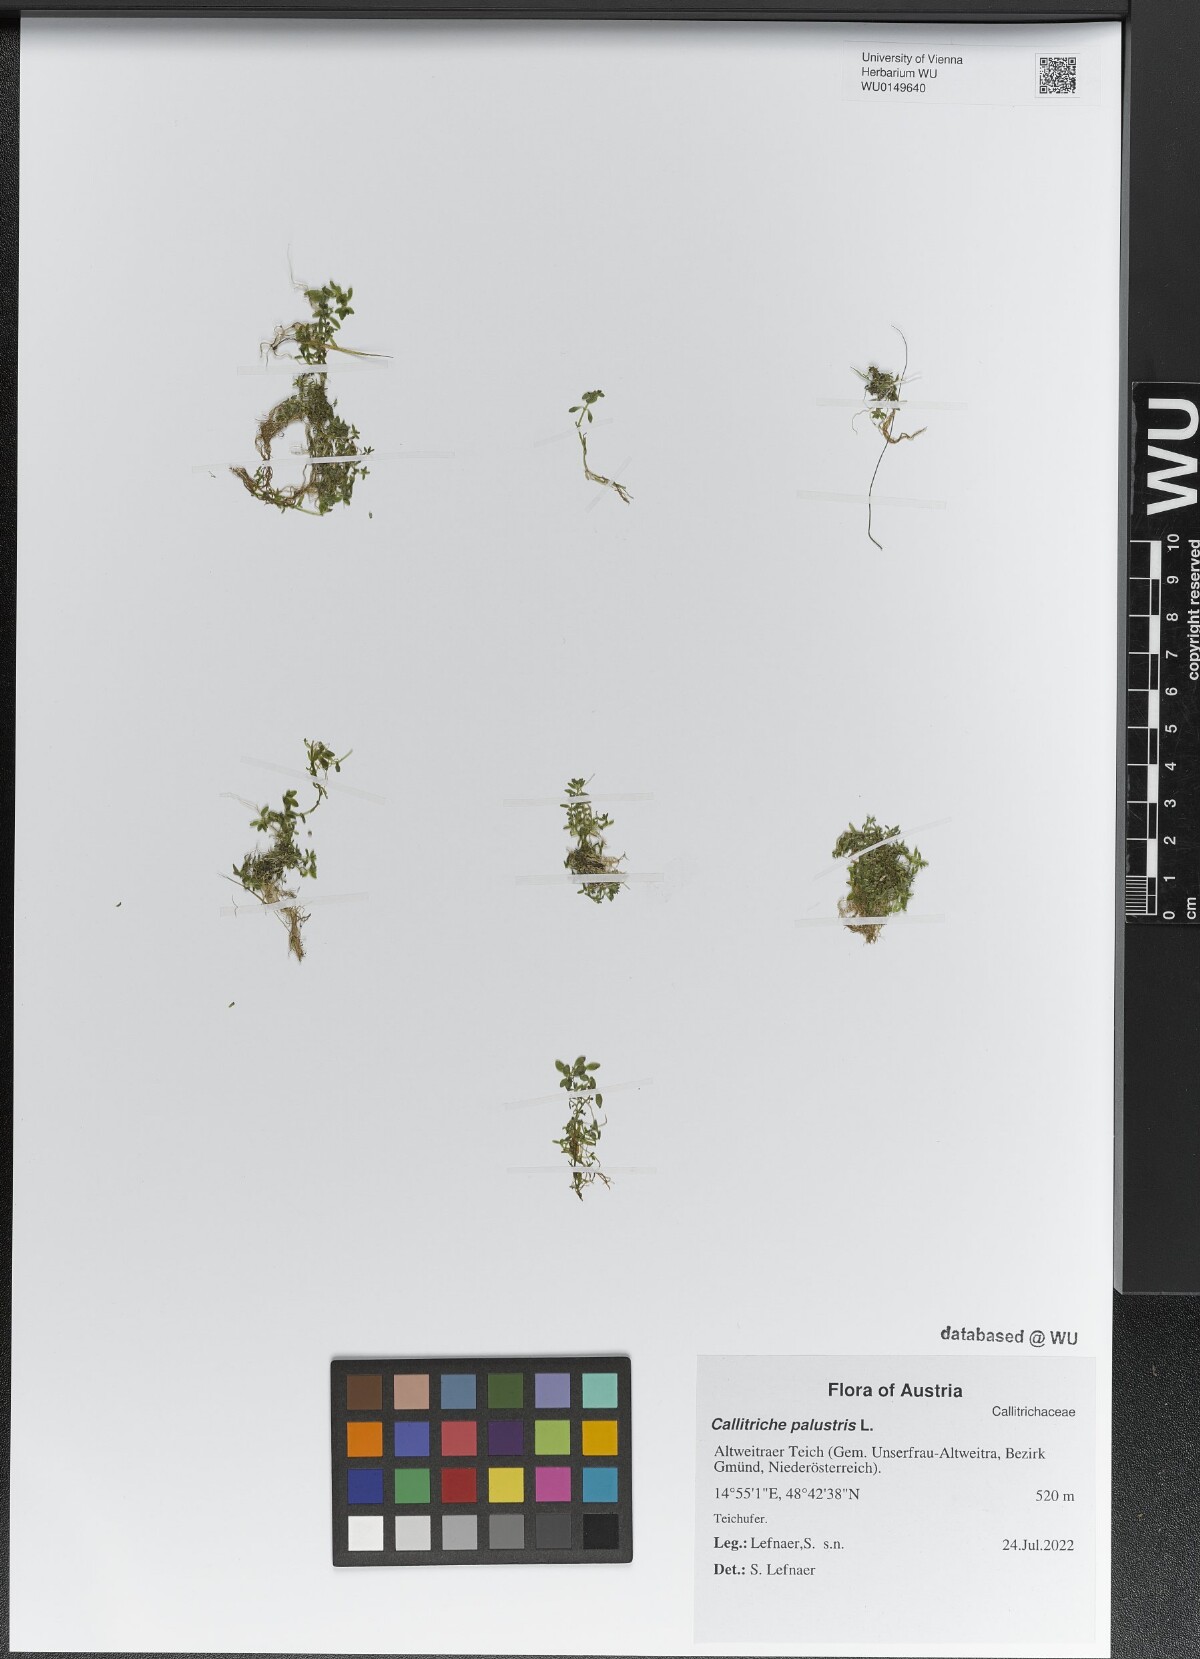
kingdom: Plantae
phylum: Tracheophyta
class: Magnoliopsida
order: Lamiales
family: Plantaginaceae
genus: Callitriche
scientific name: Callitriche palustris
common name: Spring water-starwort
